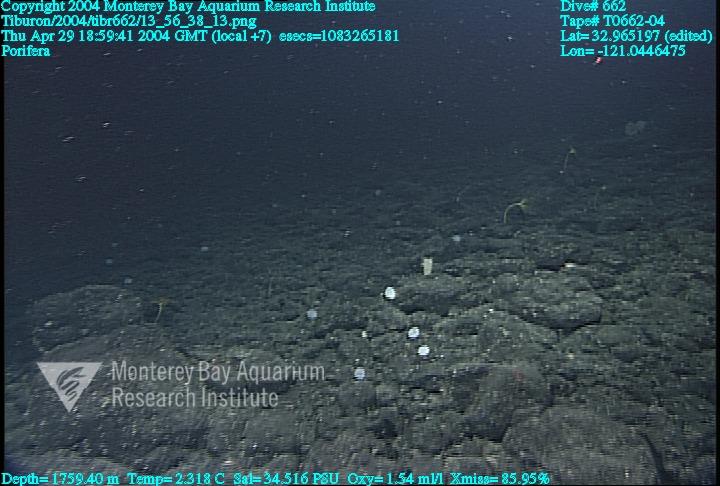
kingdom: Animalia
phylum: Porifera
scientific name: Porifera
